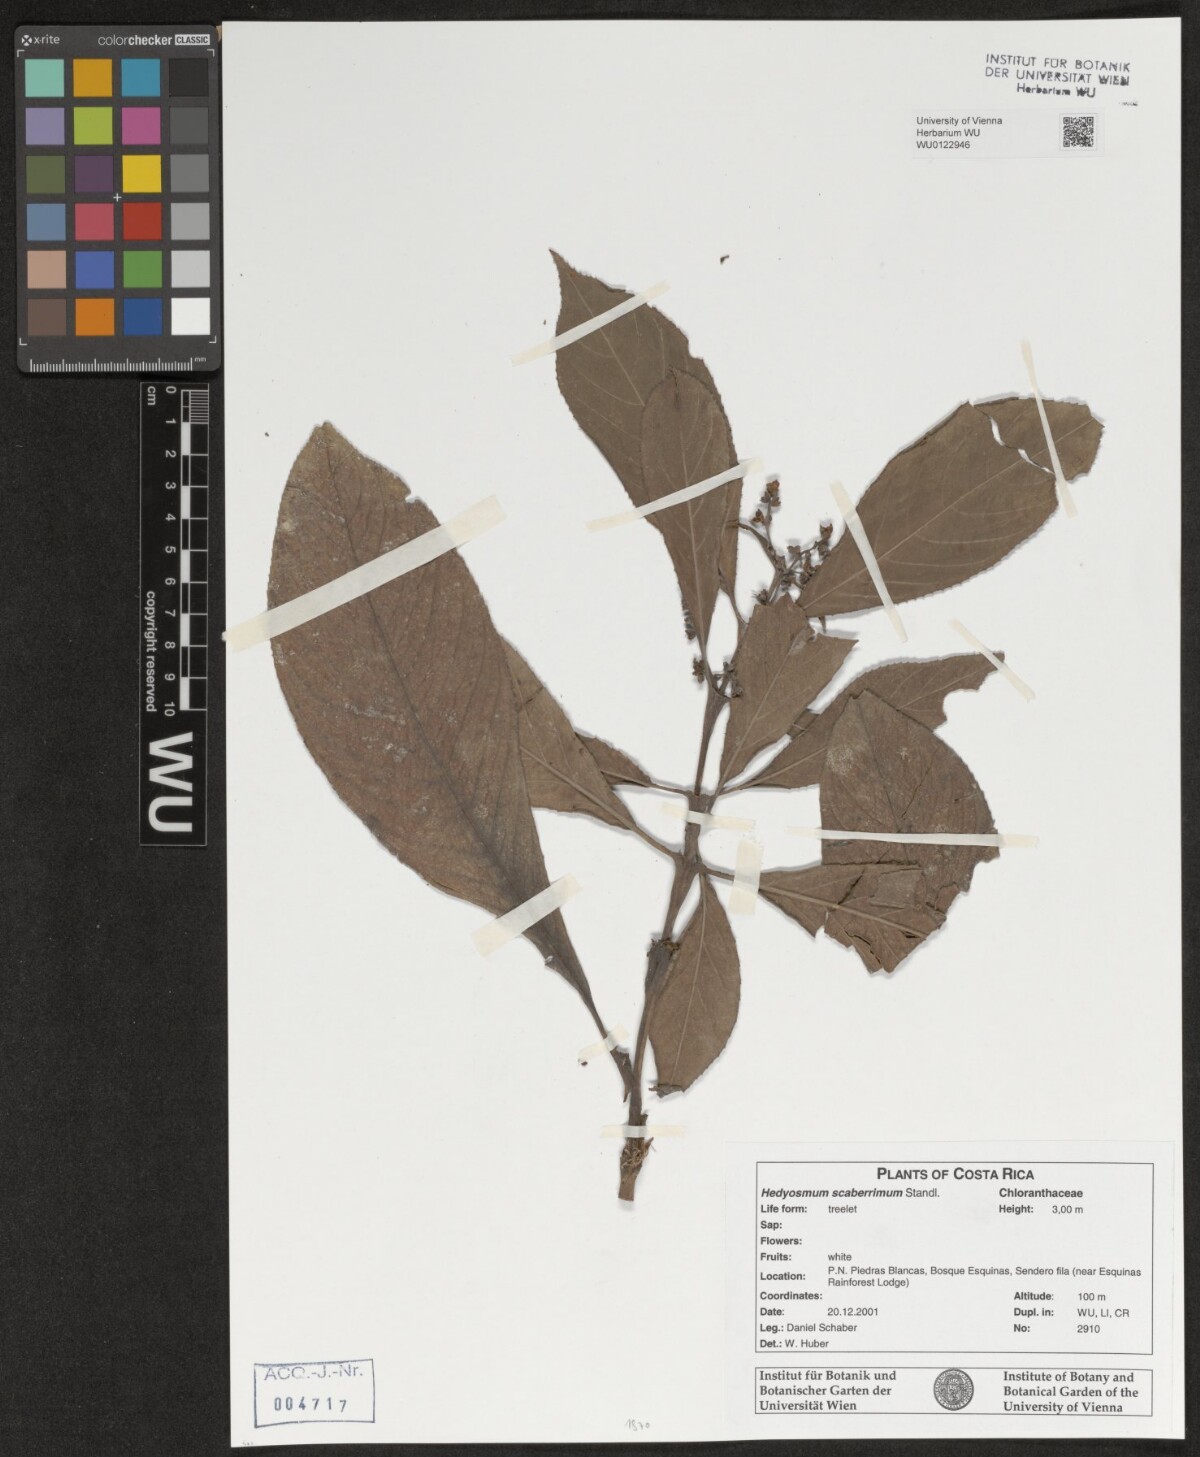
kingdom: Plantae
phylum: Tracheophyta
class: Magnoliopsida
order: Chloranthales
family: Chloranthaceae
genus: Hedyosmum
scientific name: Hedyosmum scaberrimum
